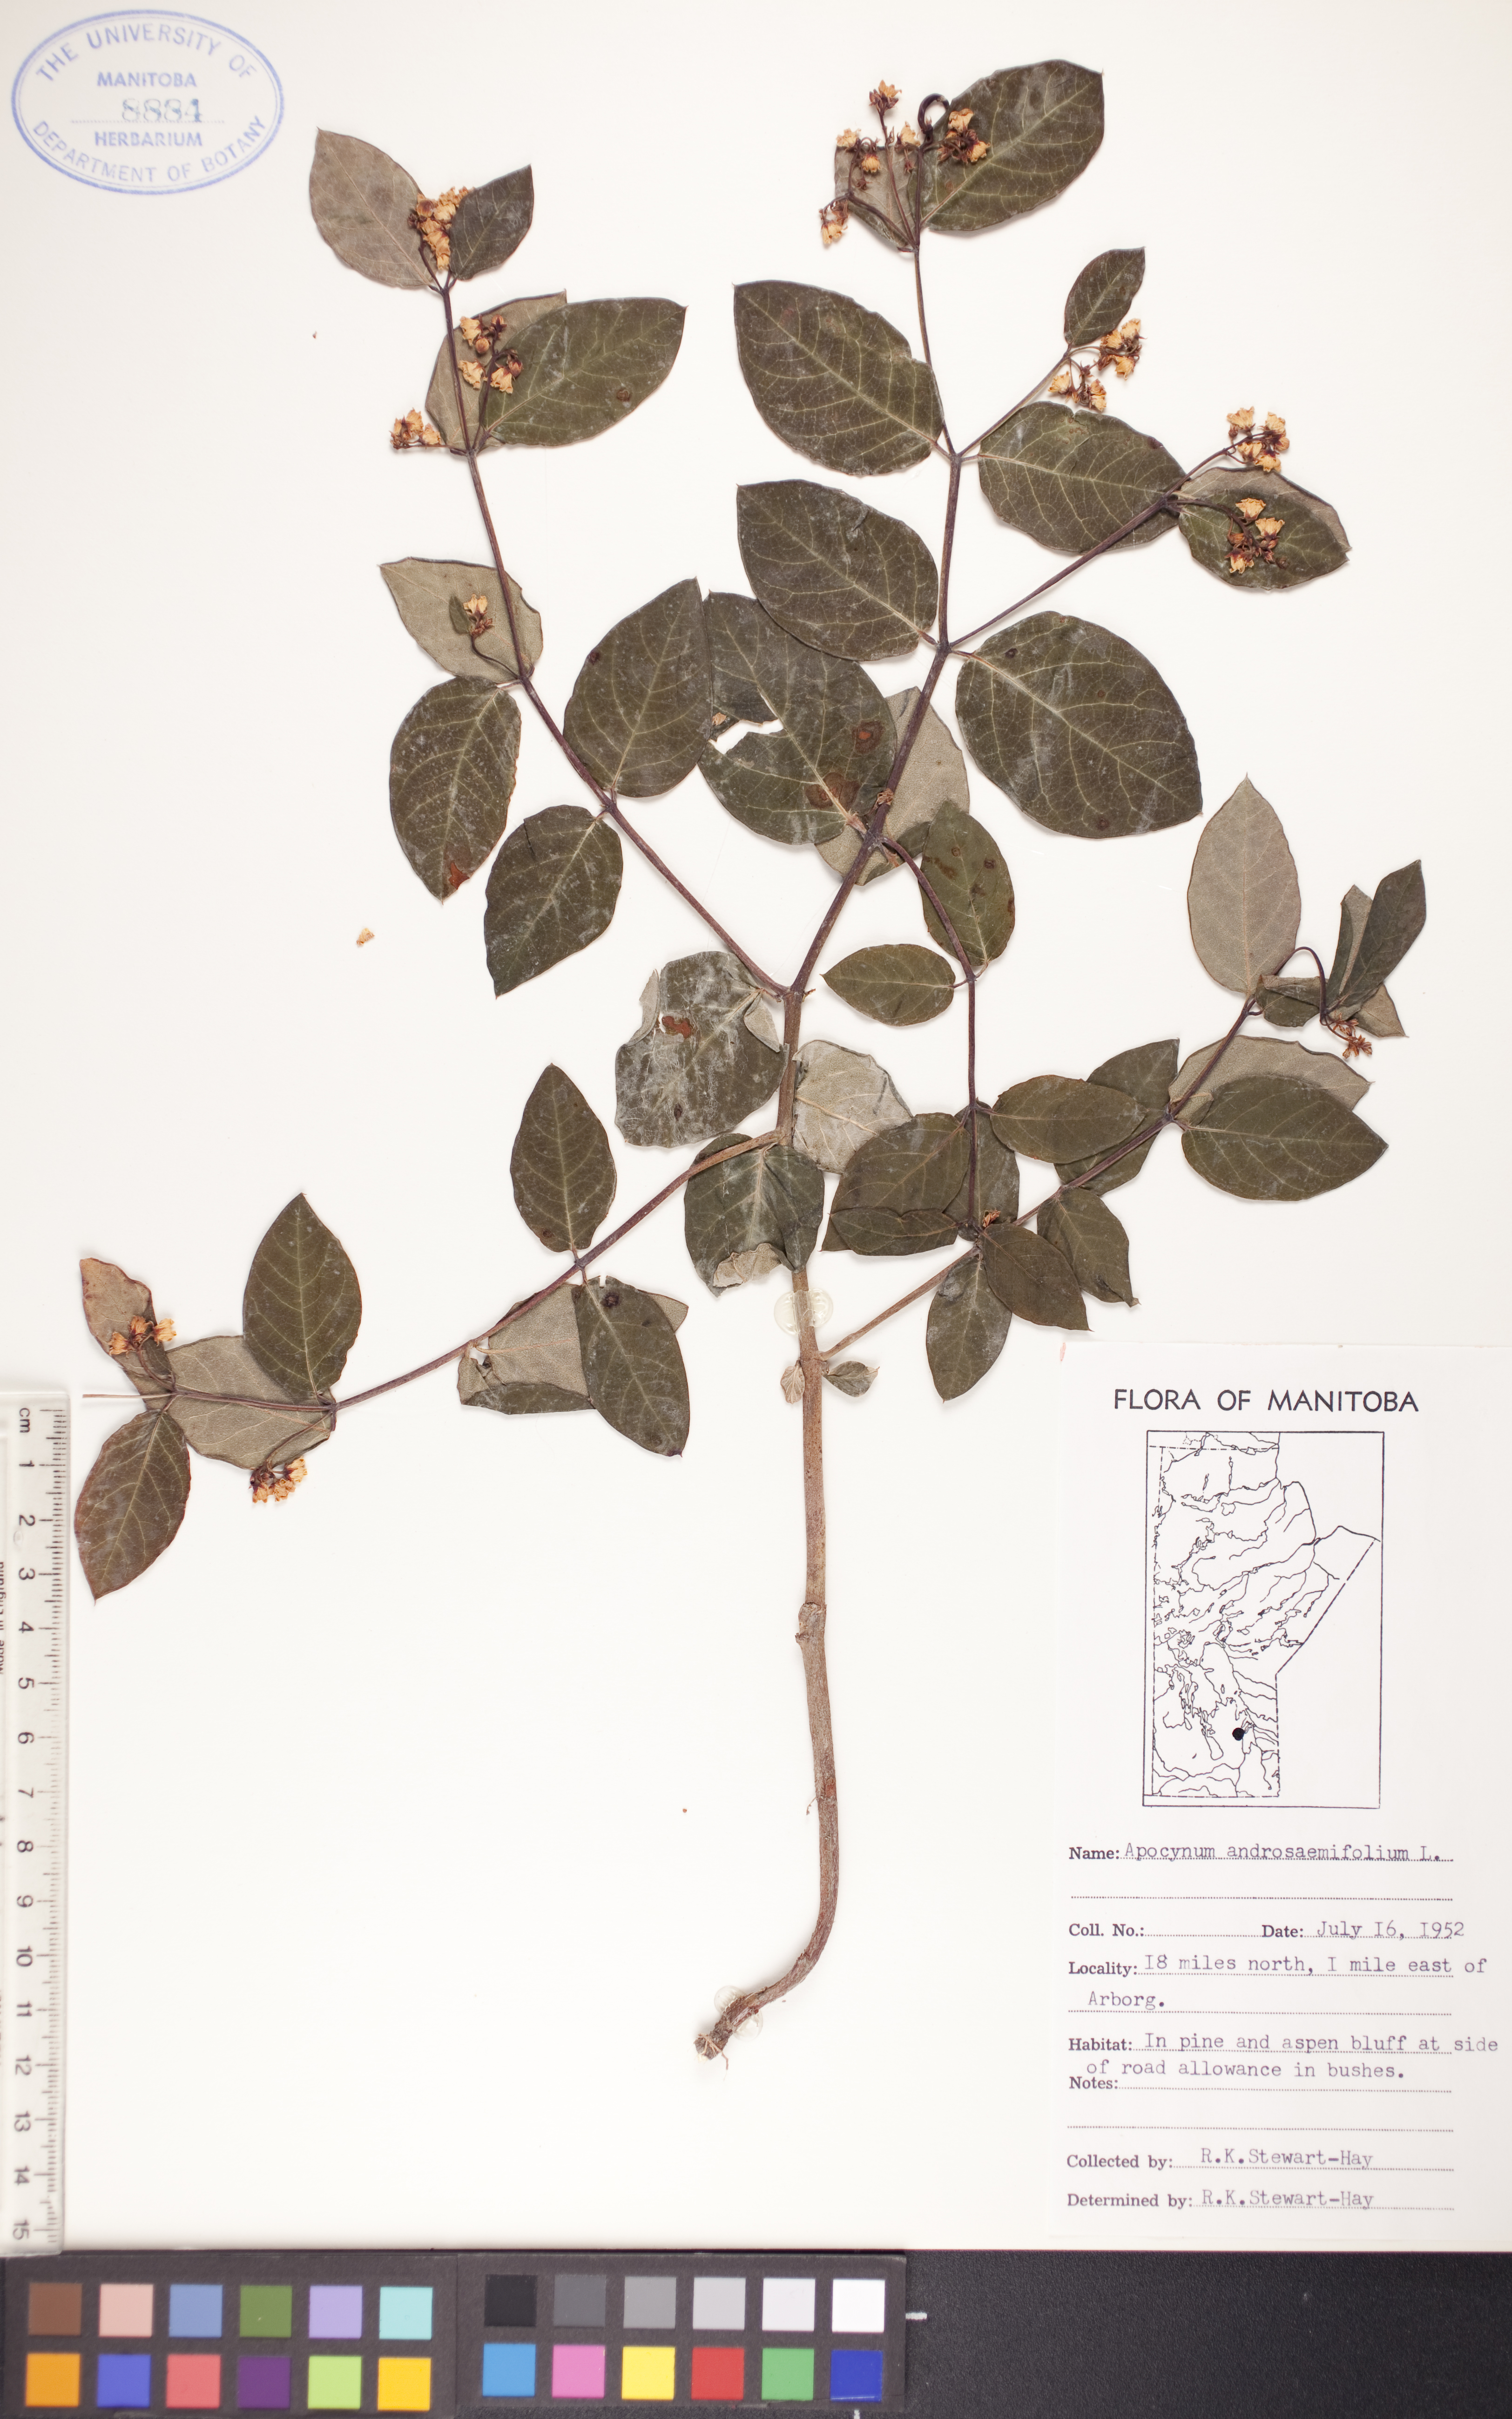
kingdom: Plantae
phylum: Tracheophyta
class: Magnoliopsida
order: Gentianales
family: Apocynaceae
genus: Apocynum
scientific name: Apocynum androsaemifolium
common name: Spreading dogbane
